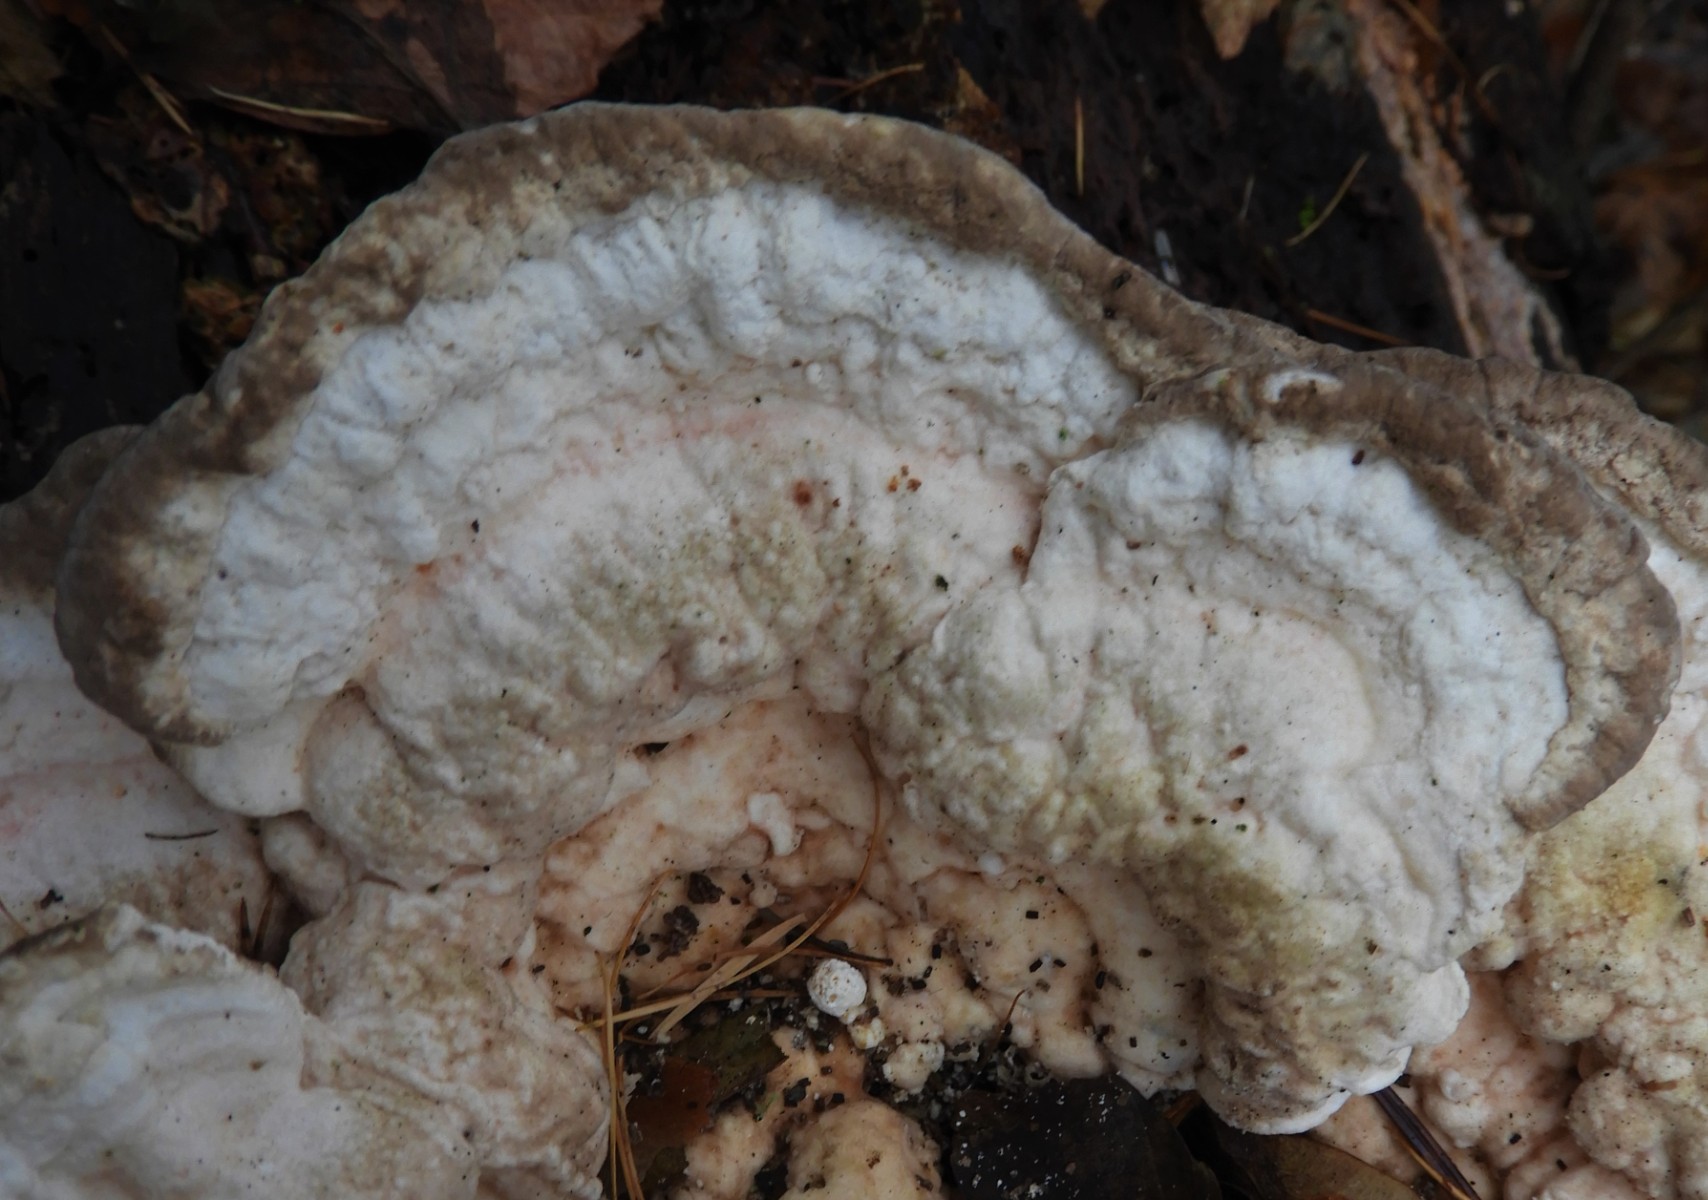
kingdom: Fungi
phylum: Basidiomycota
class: Agaricomycetes
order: Polyporales
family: Polyporaceae
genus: Trametes
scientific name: Trametes gibbosa
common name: puklet læderporesvamp
